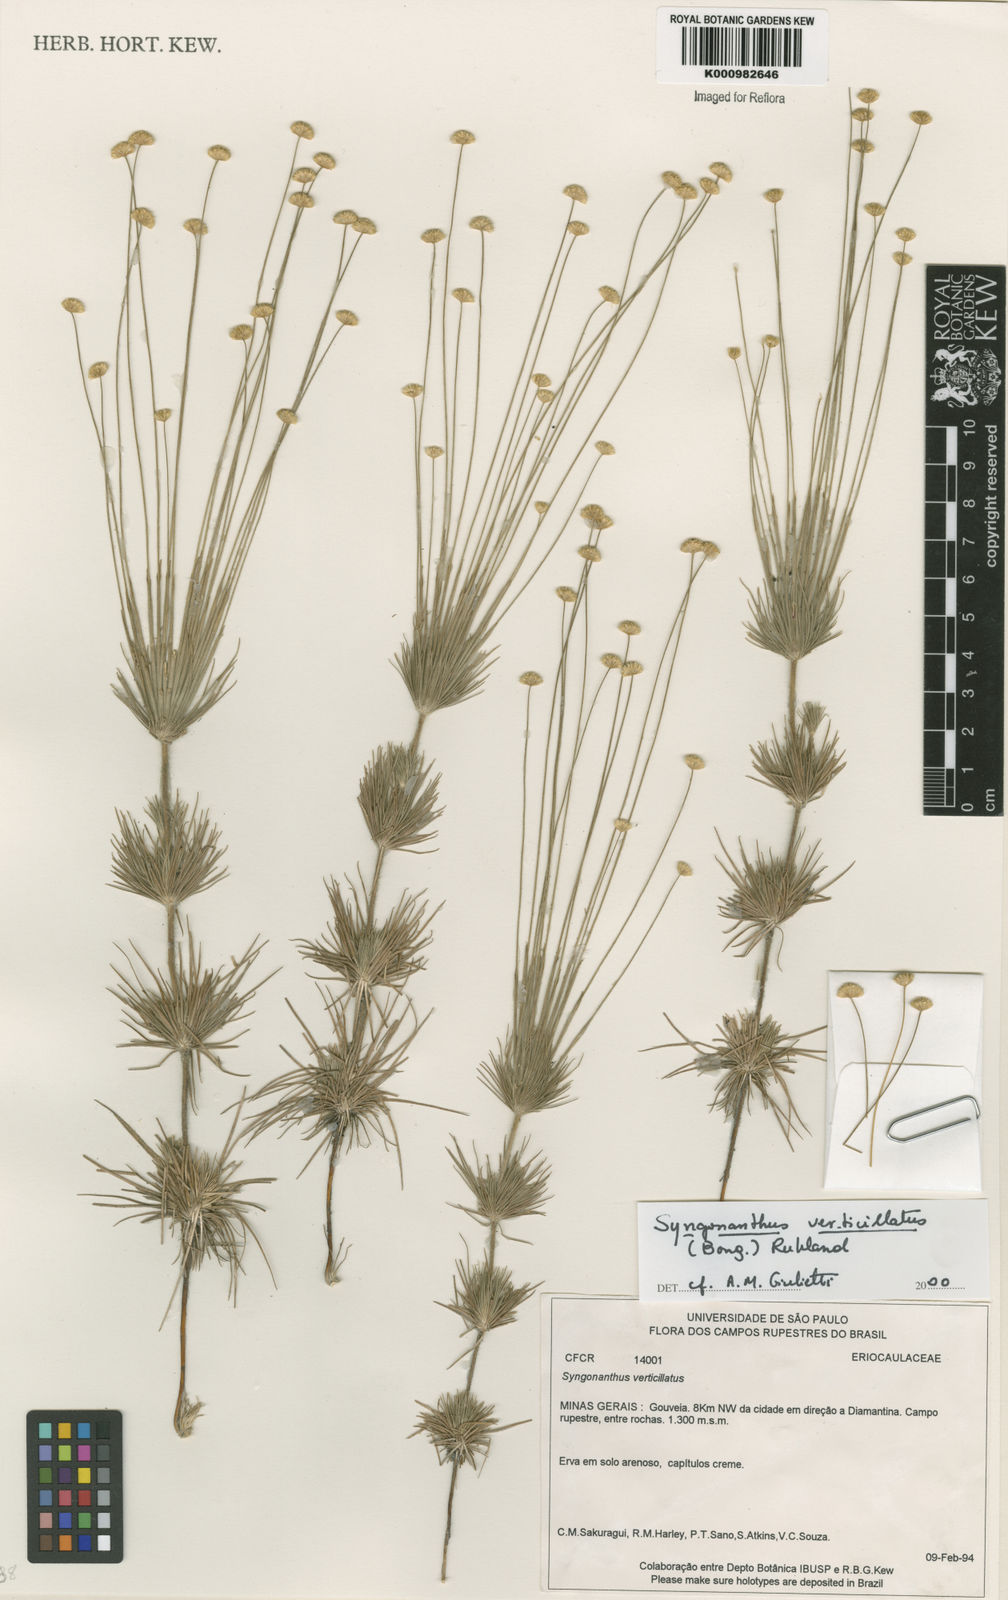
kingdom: Plantae
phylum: Tracheophyta
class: Liliopsida
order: Poales
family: Eriocaulaceae
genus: Syngonanthus
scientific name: Syngonanthus verticillatus
